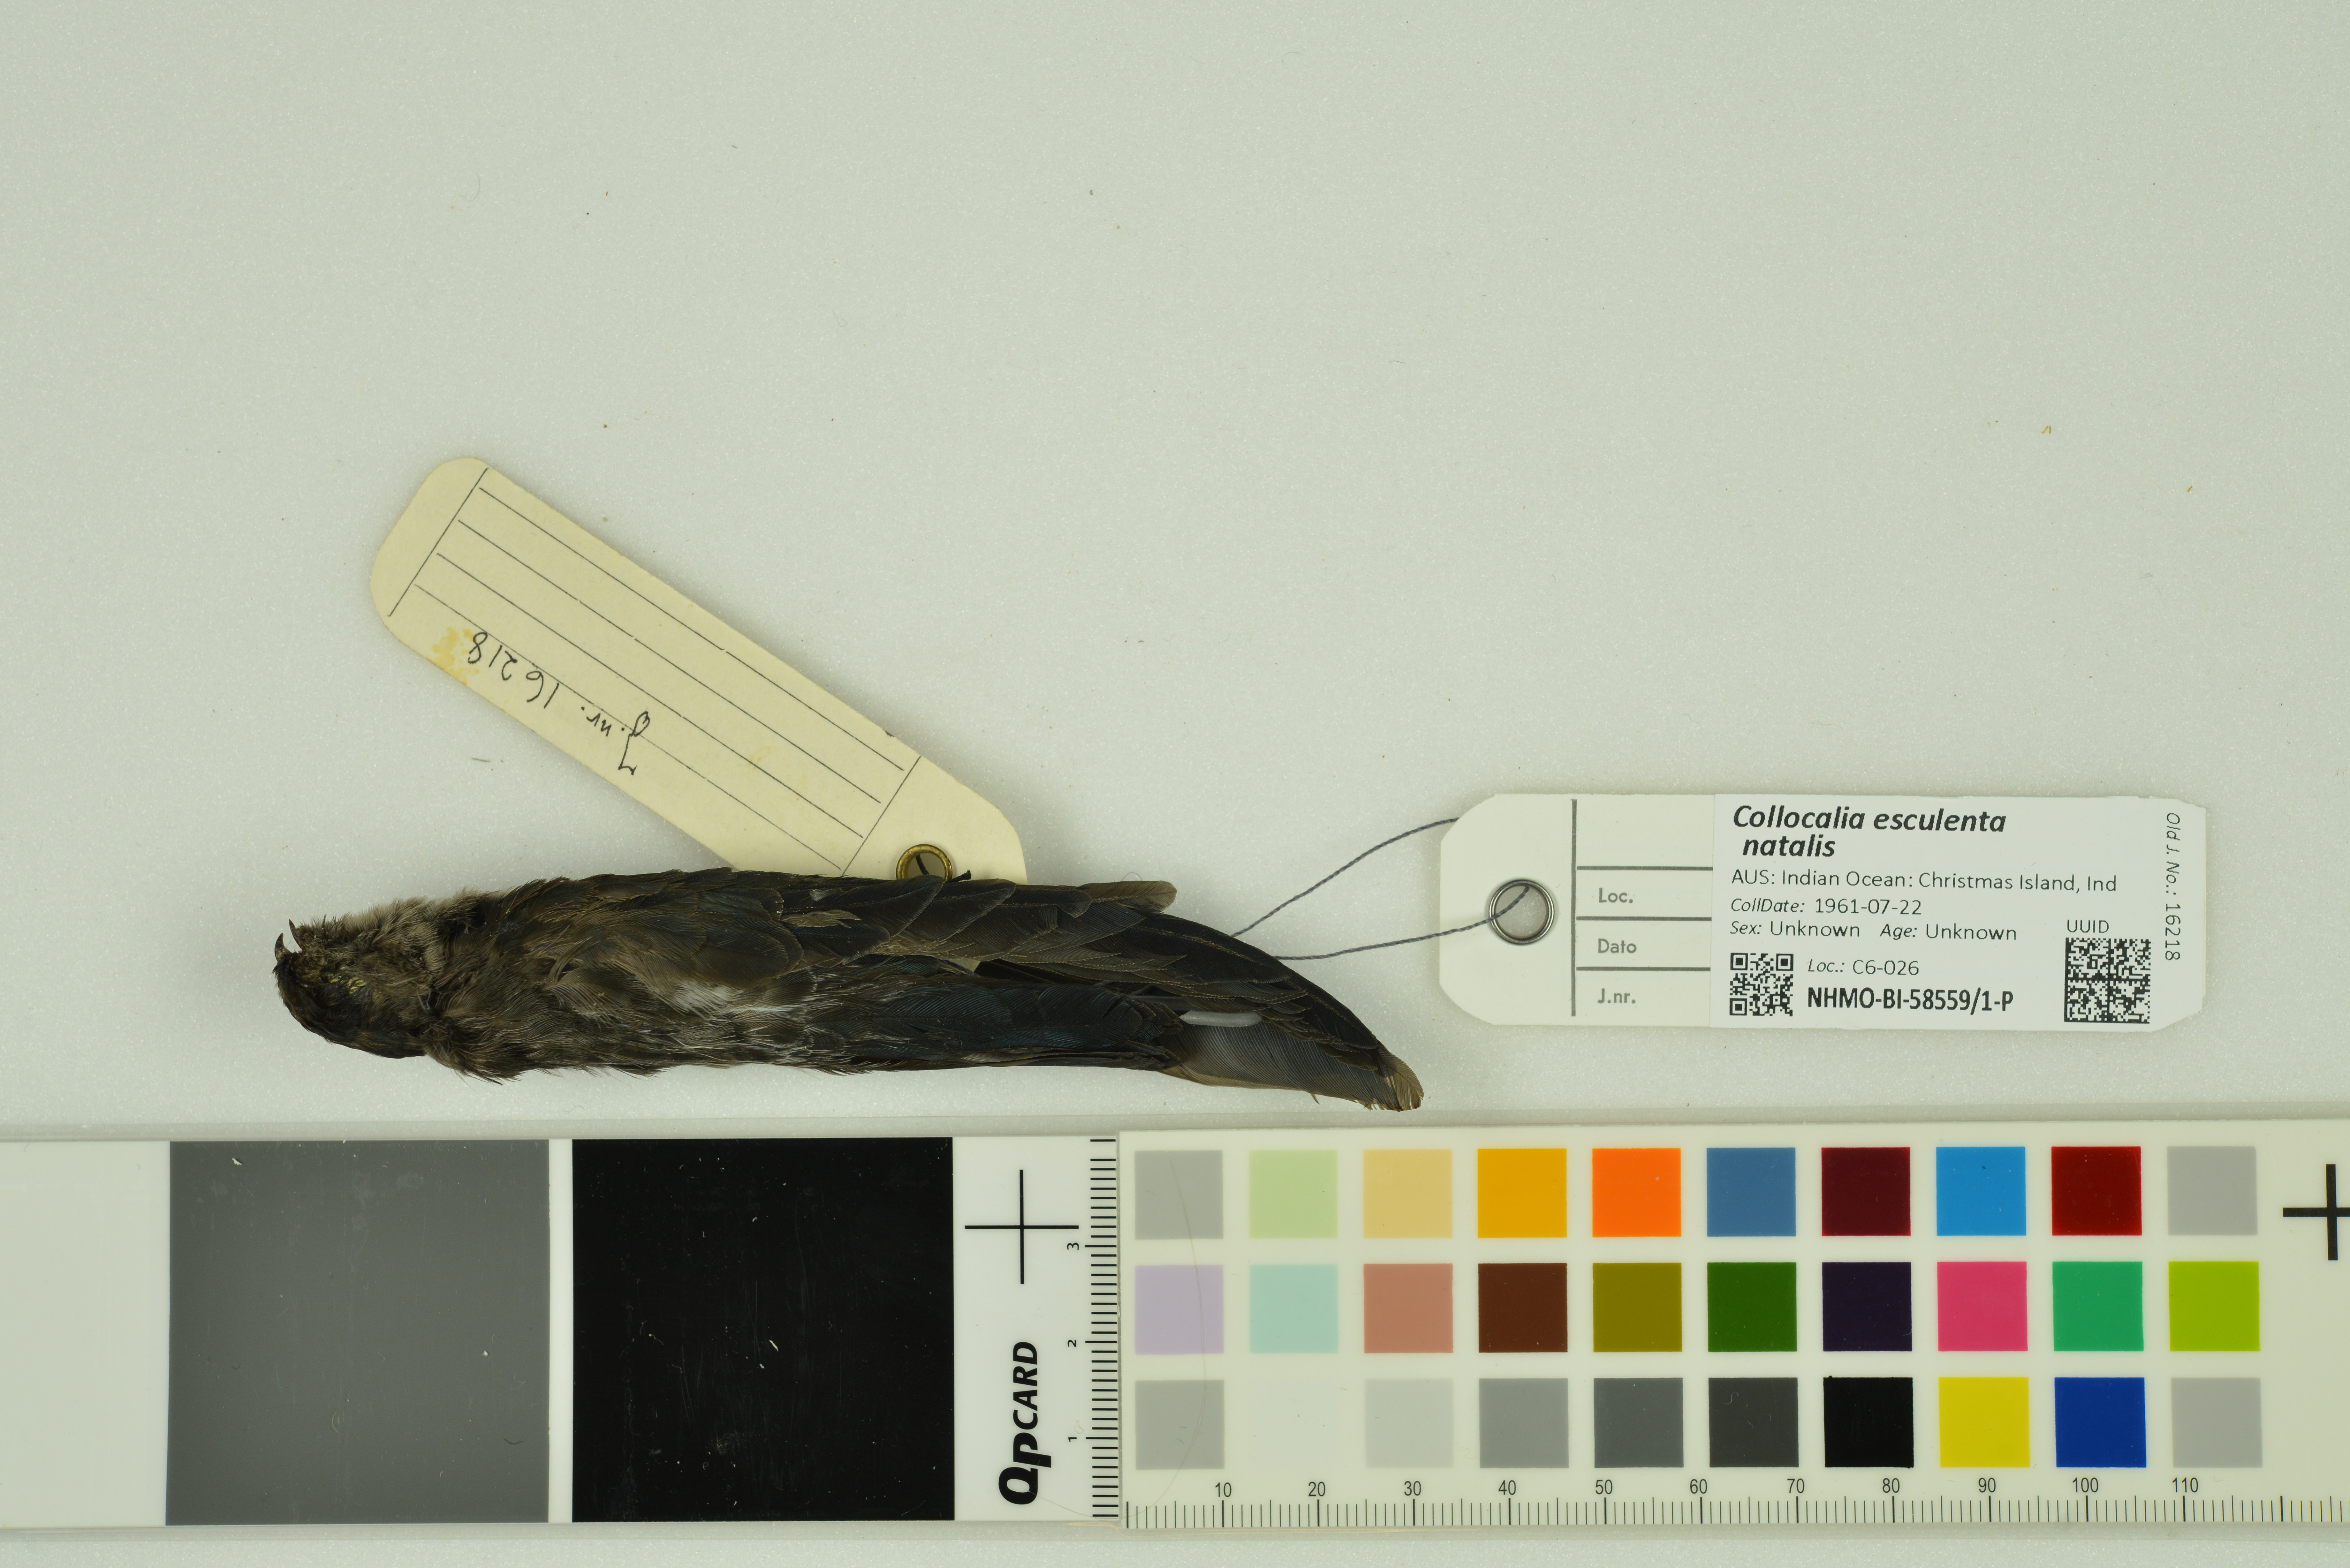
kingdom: Animalia
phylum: Chordata
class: Aves
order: Apodiformes
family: Apodidae
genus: Collocalia
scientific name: Collocalia natalis
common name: Christmas island swiftlet
